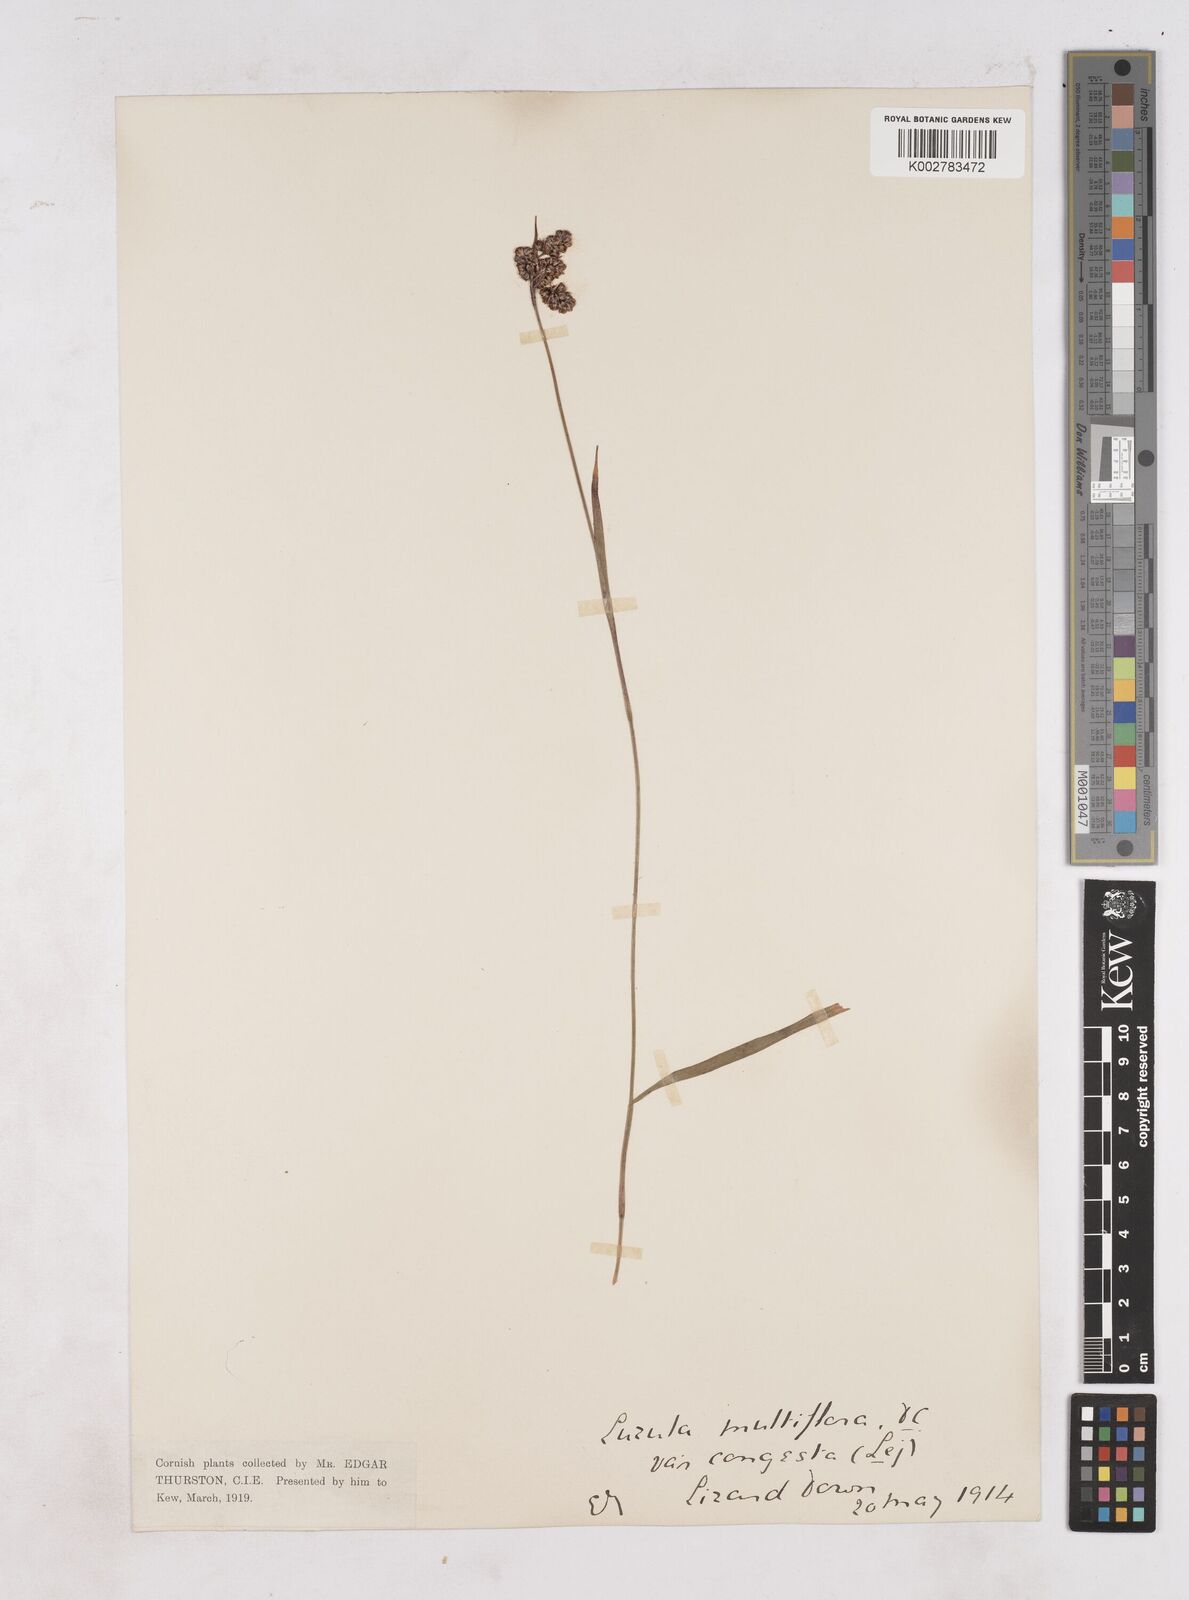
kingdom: Plantae
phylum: Tracheophyta
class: Liliopsida
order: Poales
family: Juncaceae
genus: Luzula
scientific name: Luzula campestris
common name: Field wood-rush
